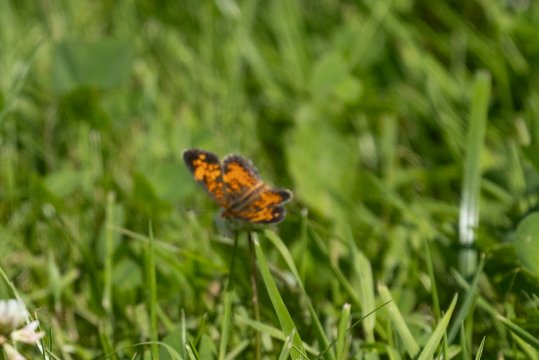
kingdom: Animalia
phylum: Arthropoda
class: Insecta
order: Lepidoptera
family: Nymphalidae
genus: Phyciodes
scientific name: Phyciodes
